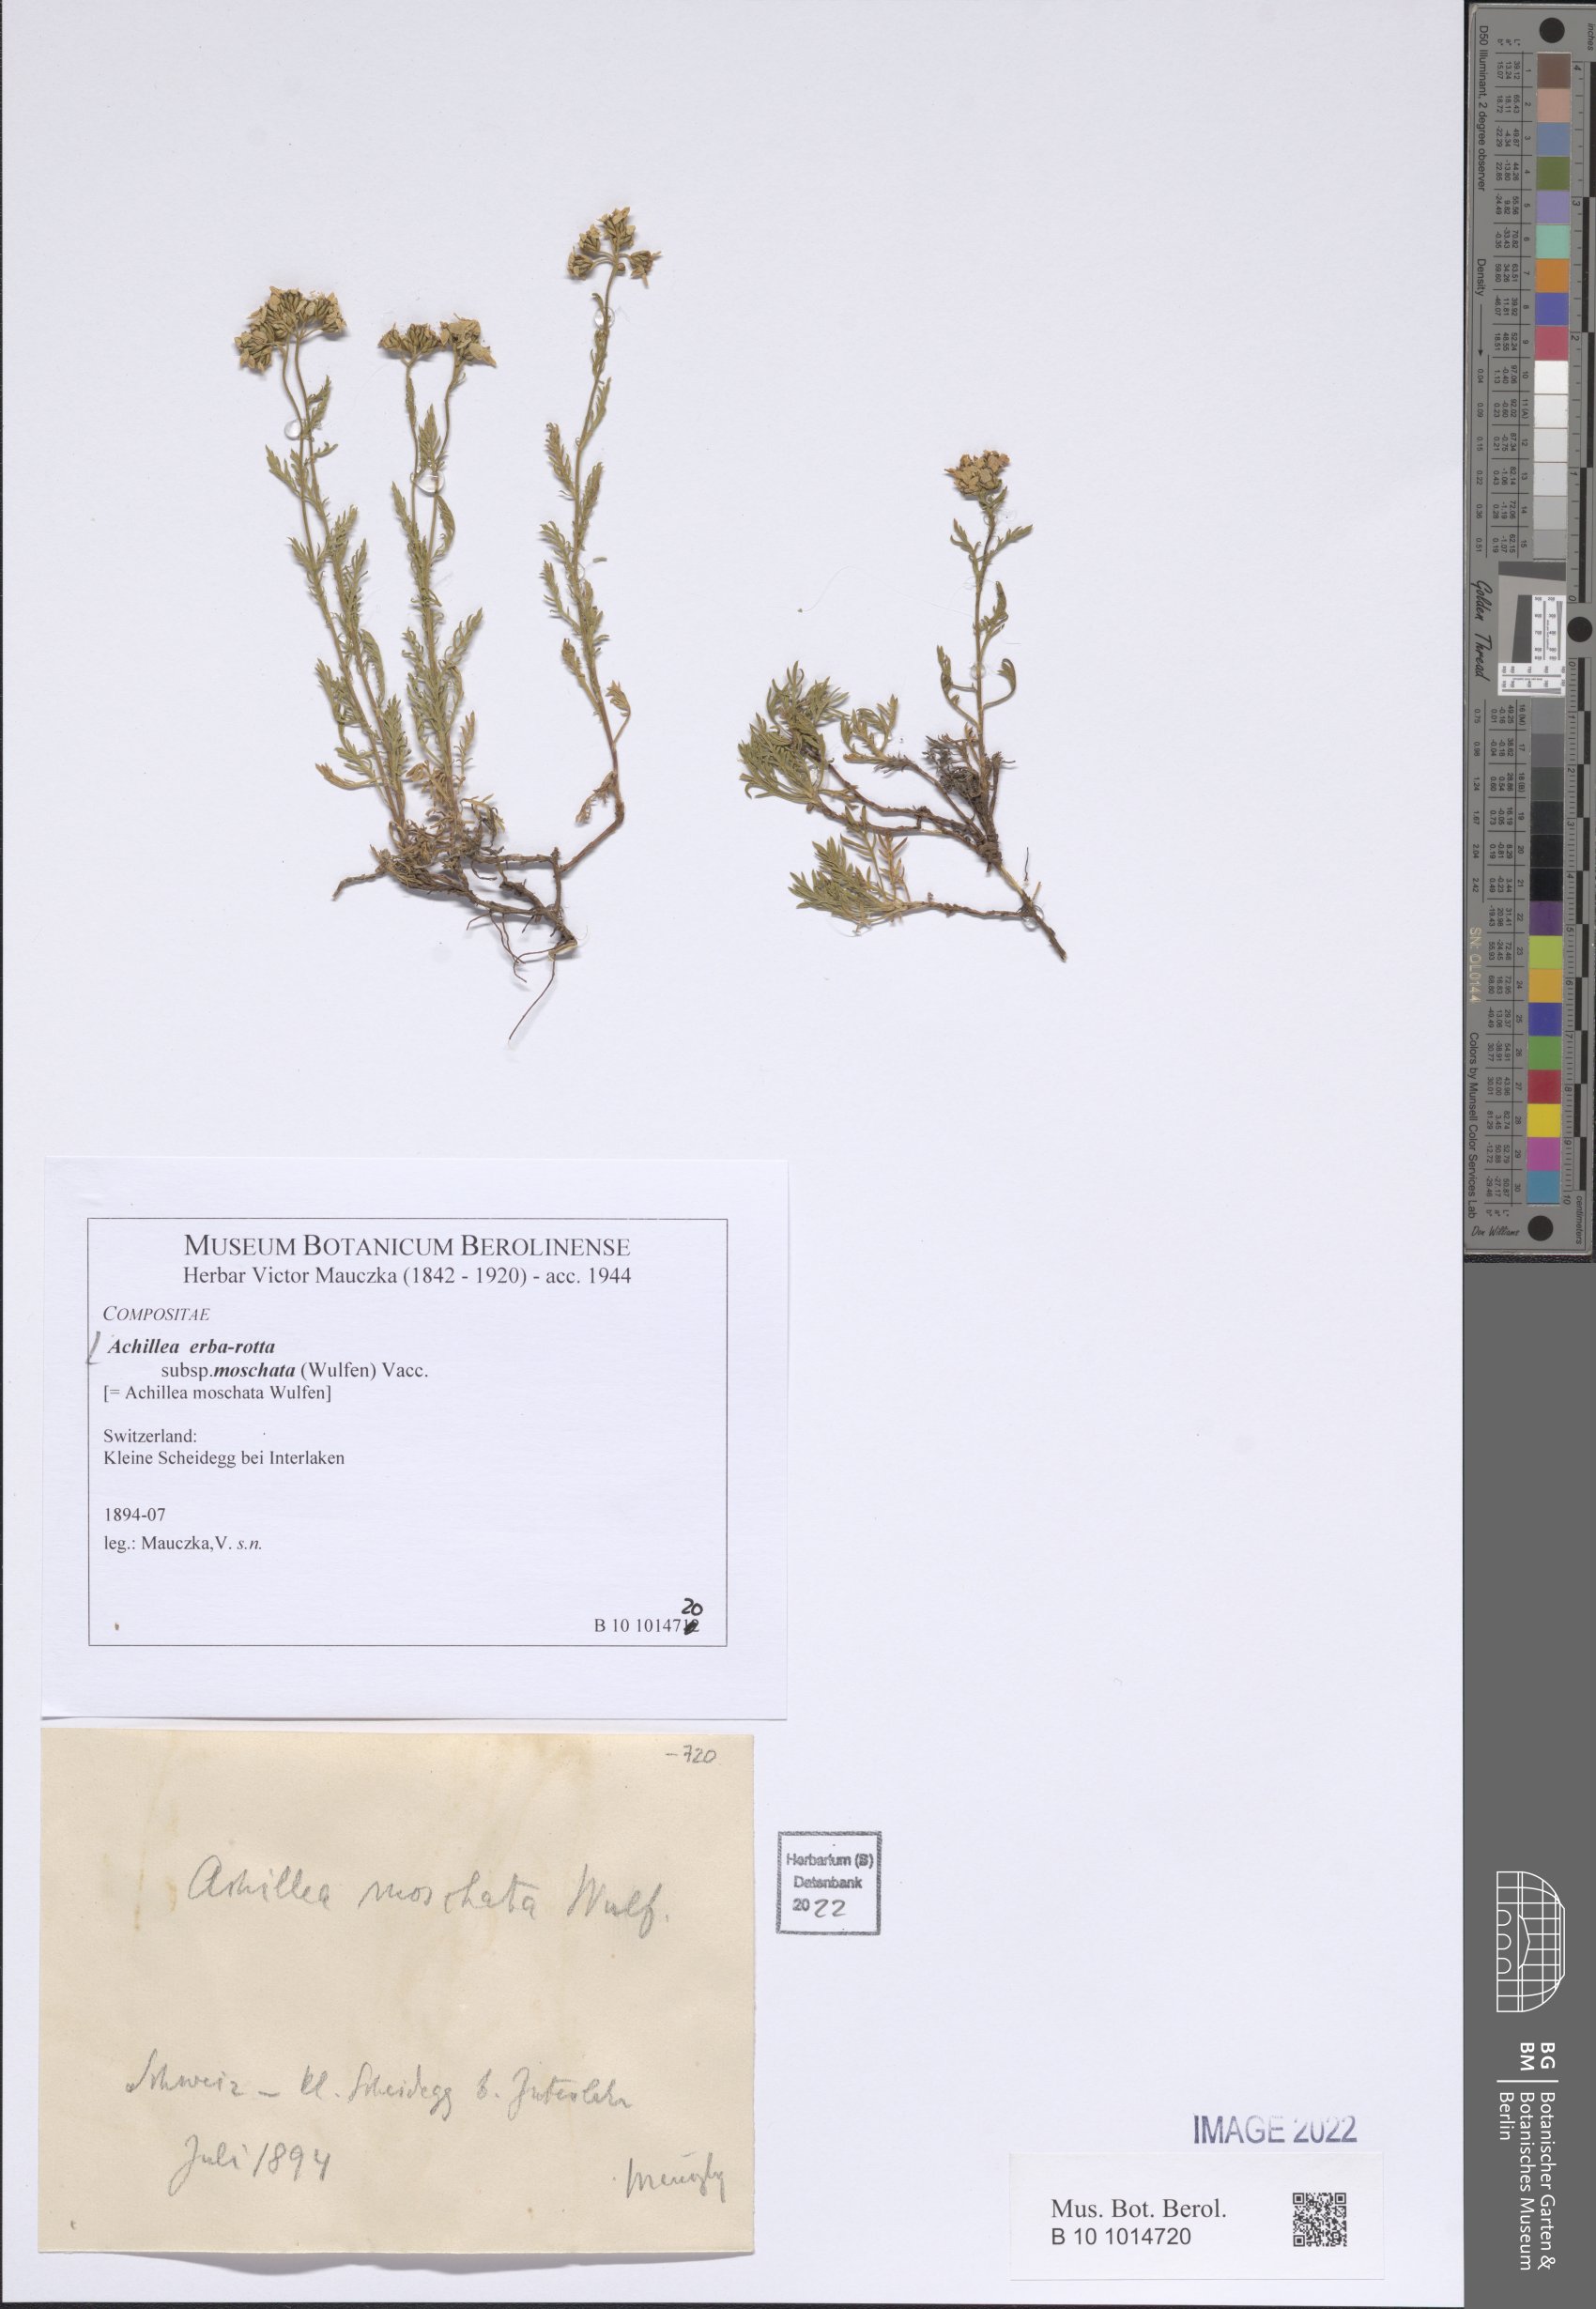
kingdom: Plantae
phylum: Tracheophyta
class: Magnoliopsida
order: Asterales
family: Asteraceae
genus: Achillea
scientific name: Achillea erba-rotta
